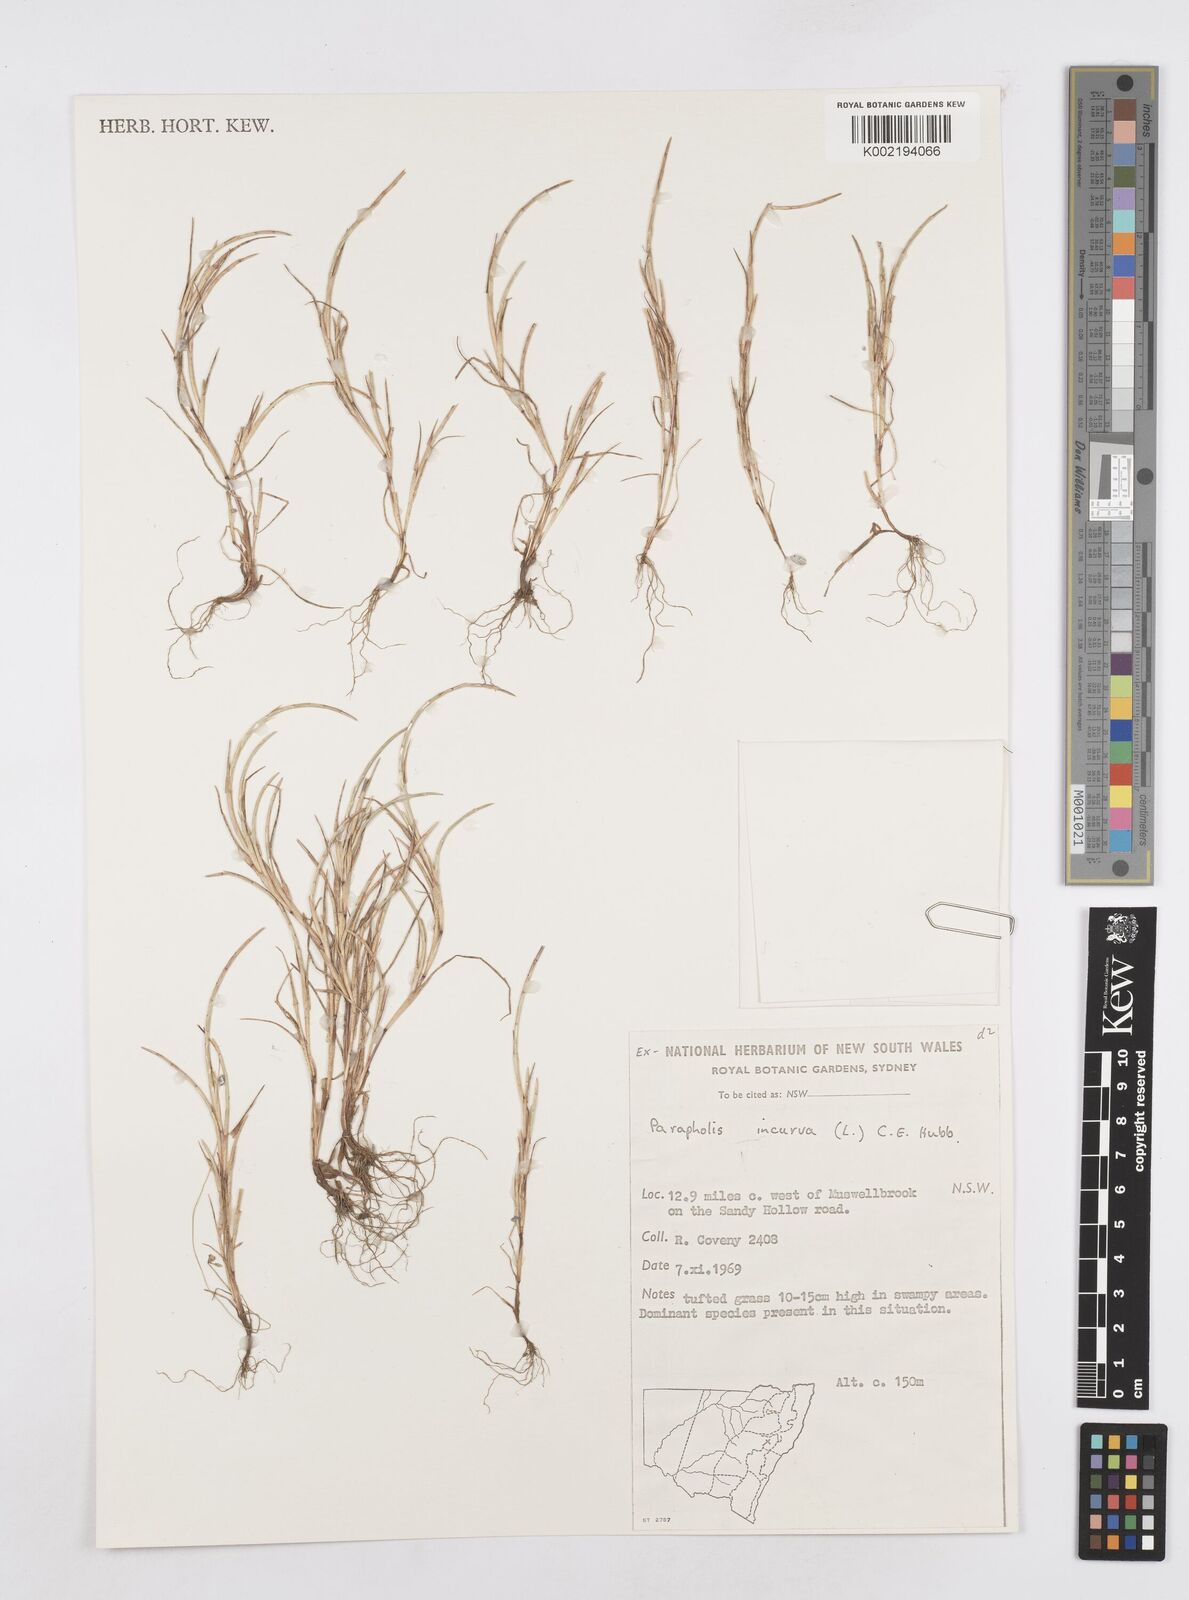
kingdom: Plantae
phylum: Tracheophyta
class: Liliopsida
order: Poales
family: Poaceae
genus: Parapholis
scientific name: Parapholis incurva
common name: Curved sicklegrass
